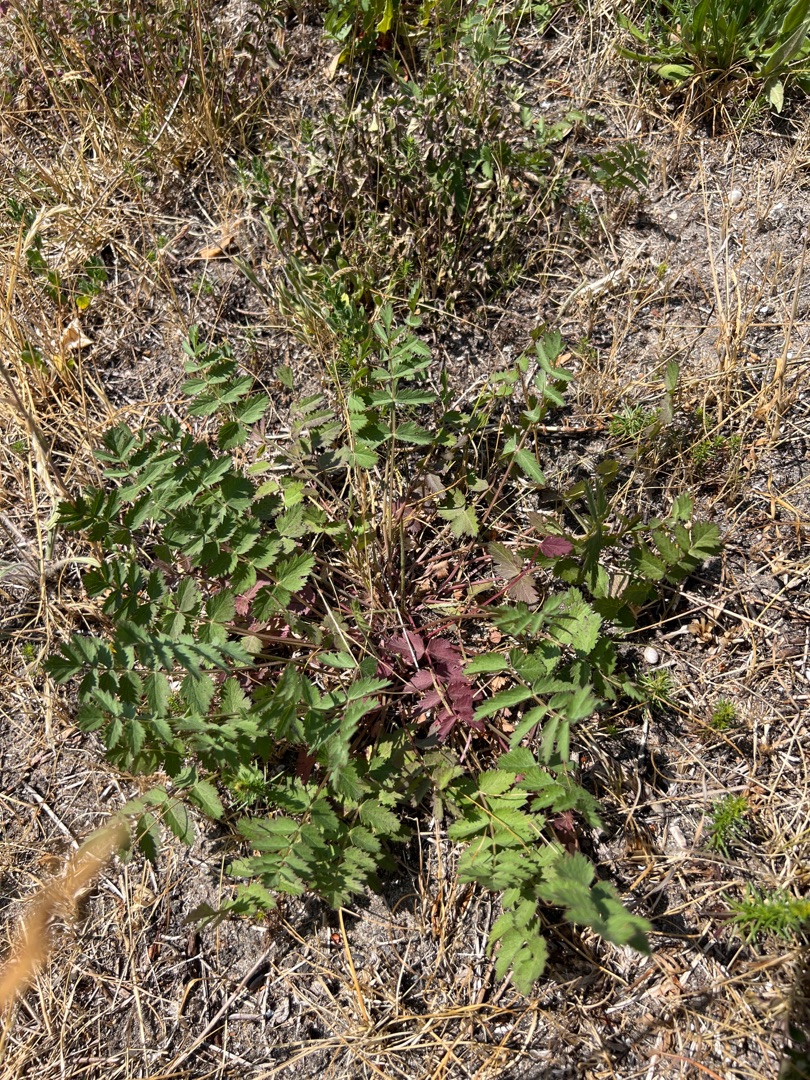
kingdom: Plantae
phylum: Tracheophyta
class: Magnoliopsida
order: Apiales
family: Apiaceae
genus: Pimpinella
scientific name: Pimpinella saxifraga
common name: Almindelig pimpinelle
